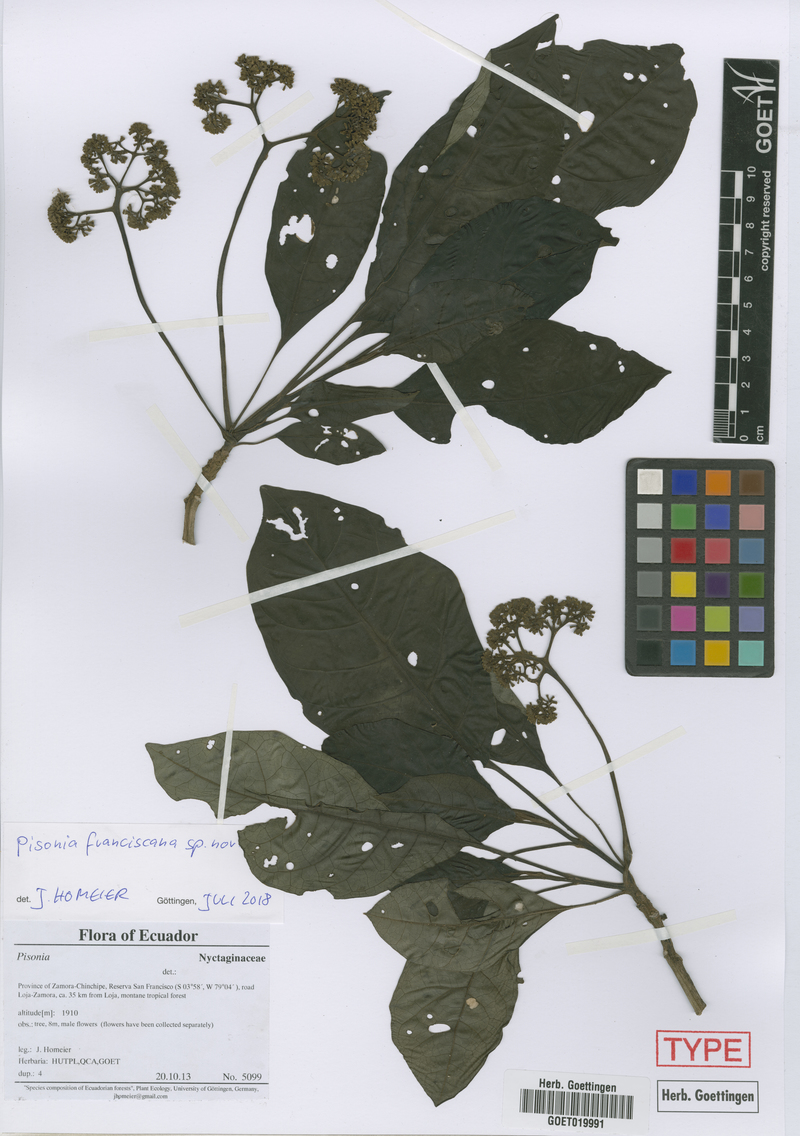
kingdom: Plantae
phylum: Tracheophyta
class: Magnoliopsida
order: Caryophyllales
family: Nyctaginaceae
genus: Pisonia
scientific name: Pisonia
